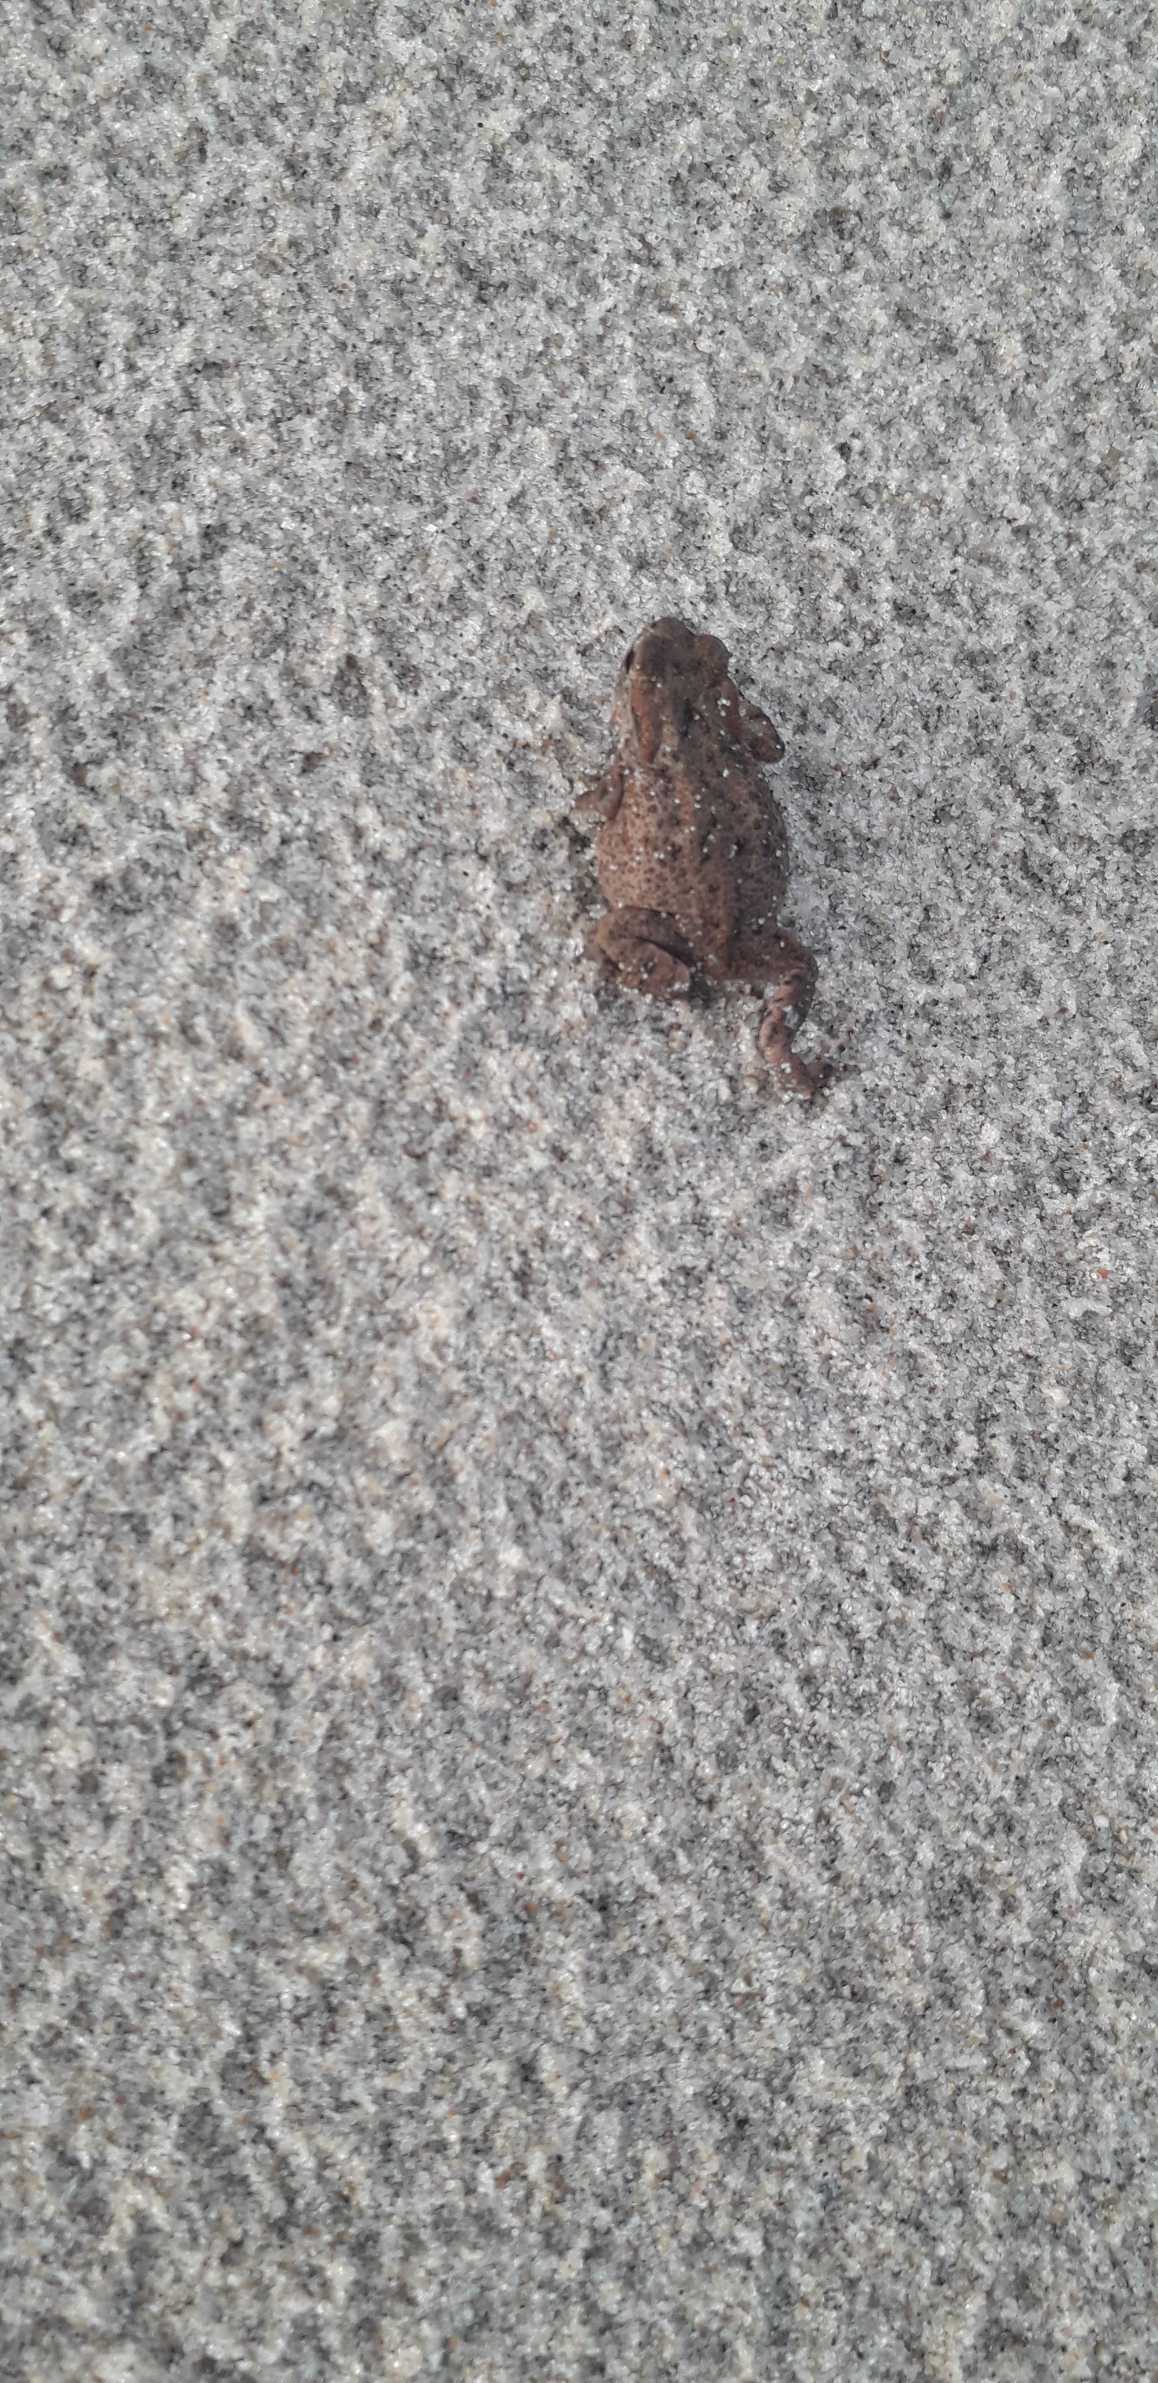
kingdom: Animalia
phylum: Chordata
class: Amphibia
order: Anura
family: Bufonidae
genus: Bufo
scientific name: Bufo bufo
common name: Skrubtudse
